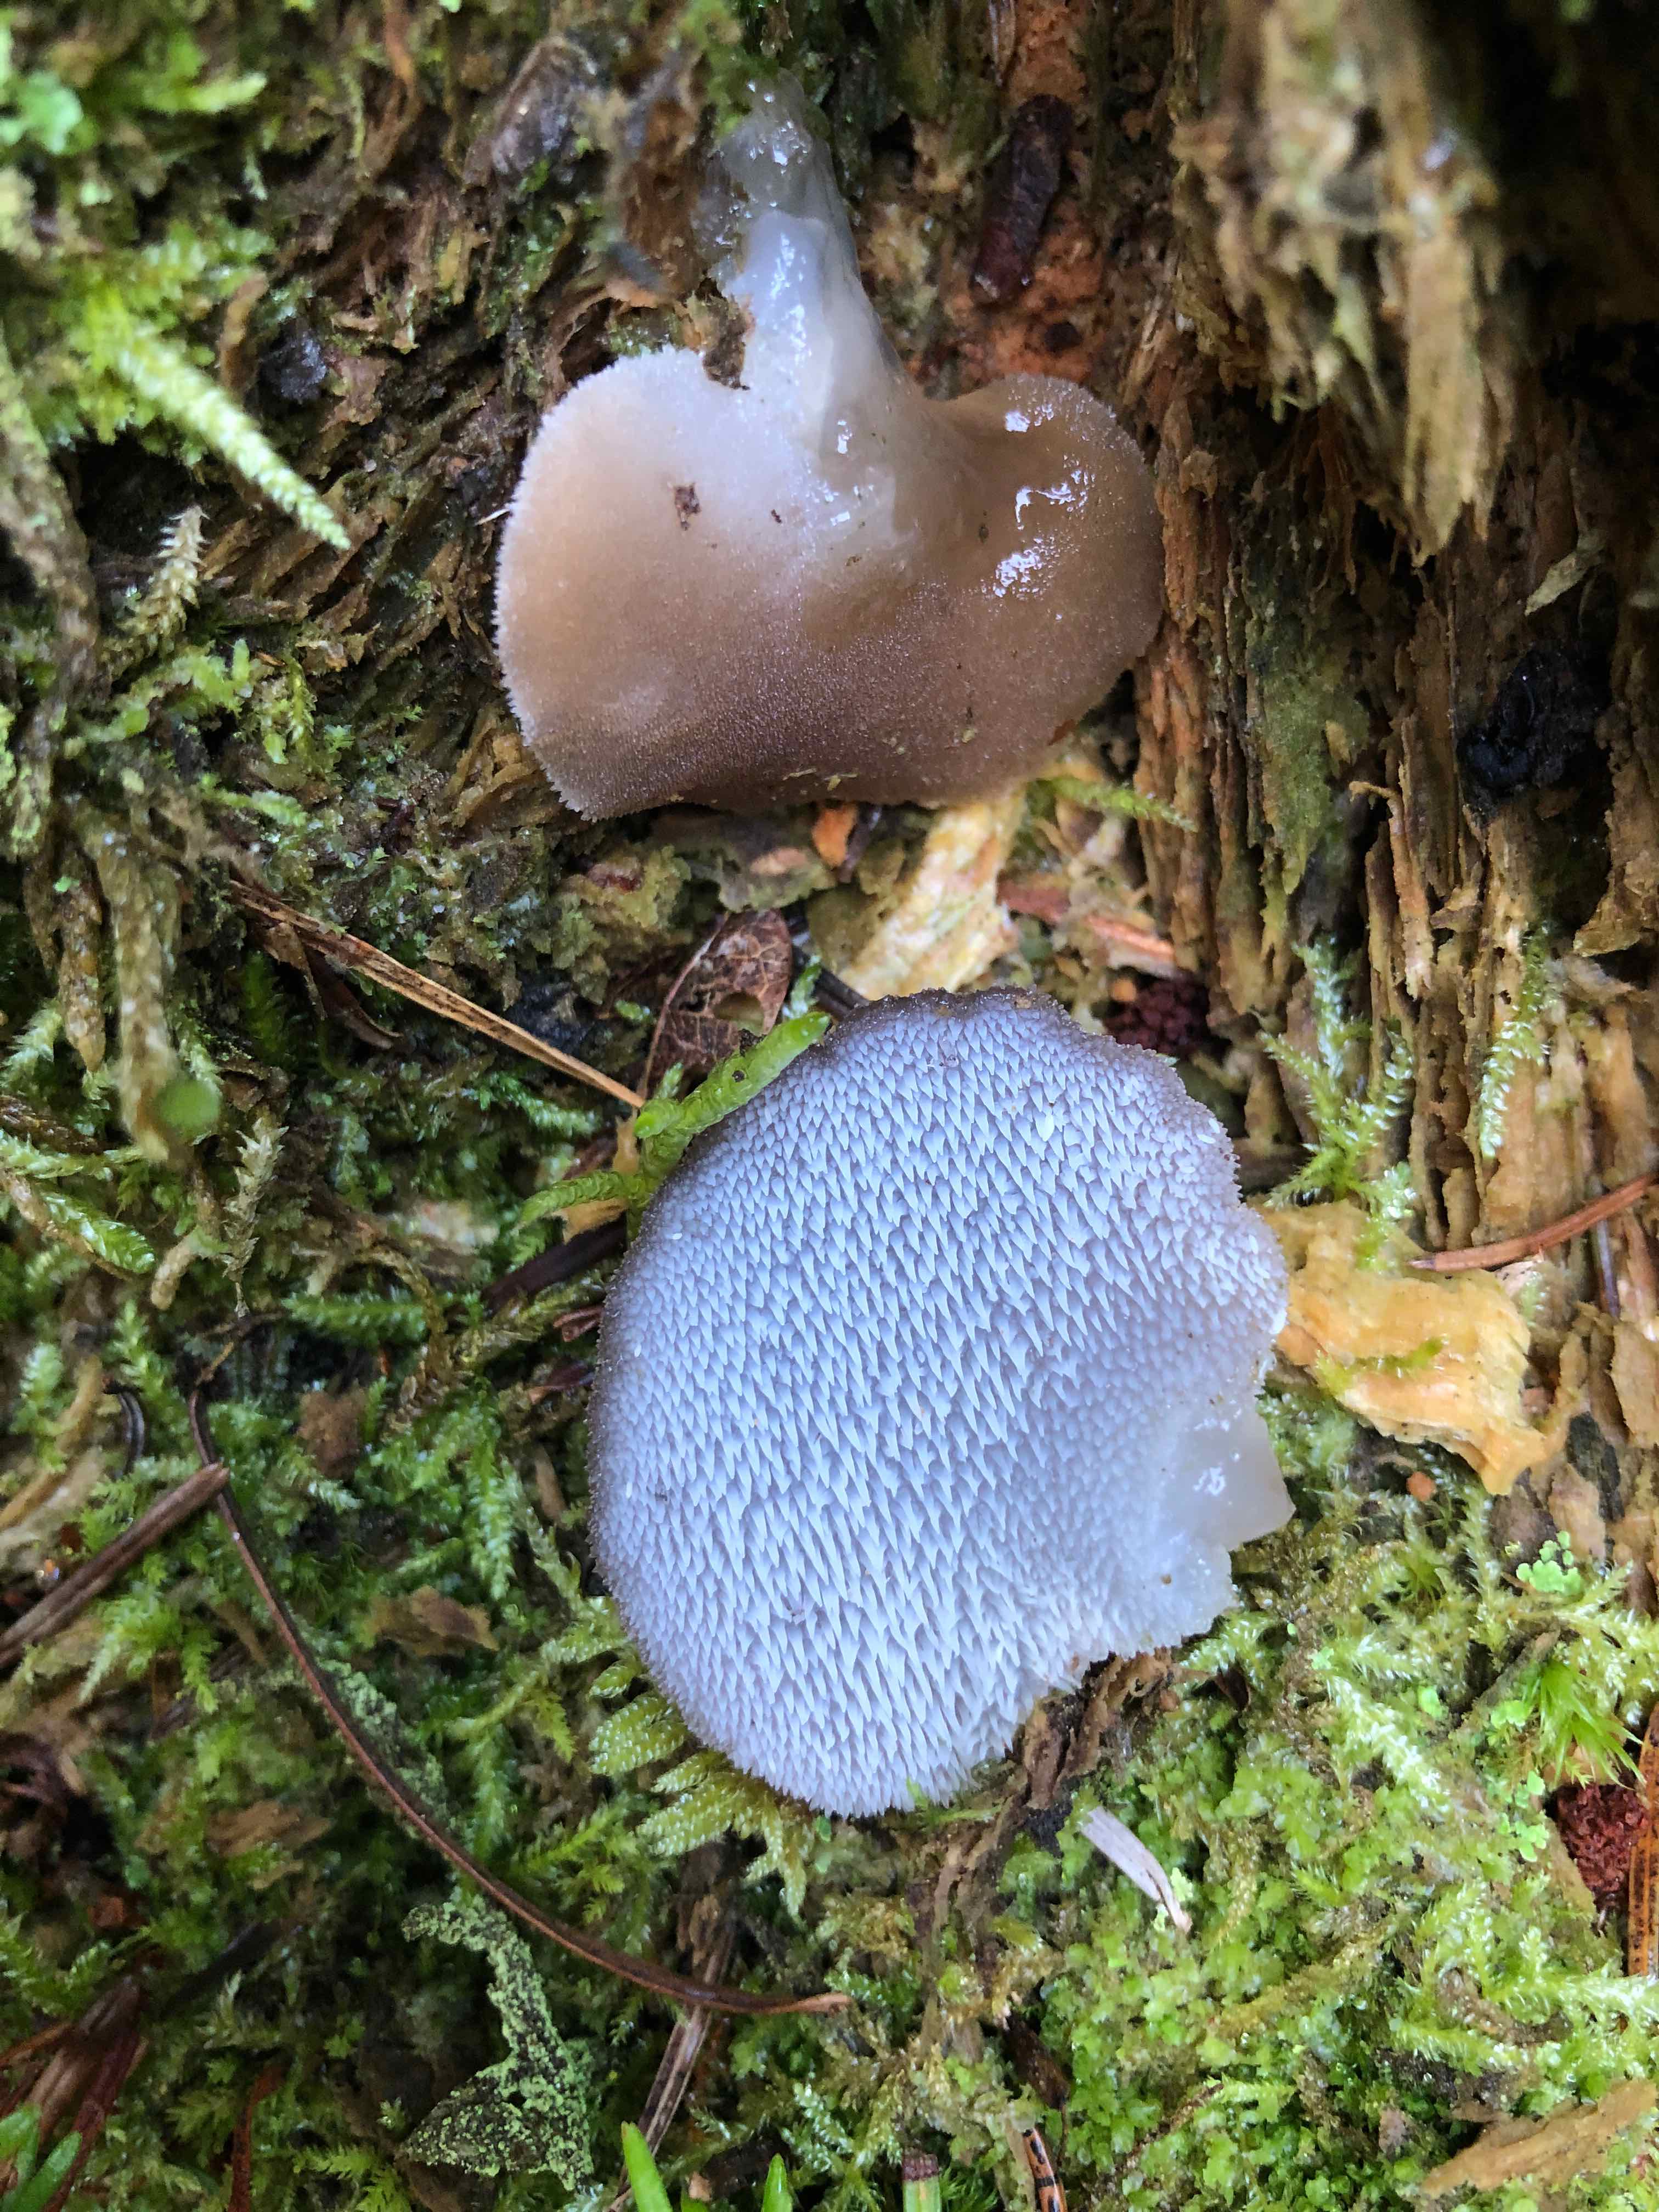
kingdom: Fungi
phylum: Basidiomycota
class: Agaricomycetes
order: Auriculariales
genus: Pseudohydnum
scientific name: Pseudohydnum gelatinosum
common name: bævretand
